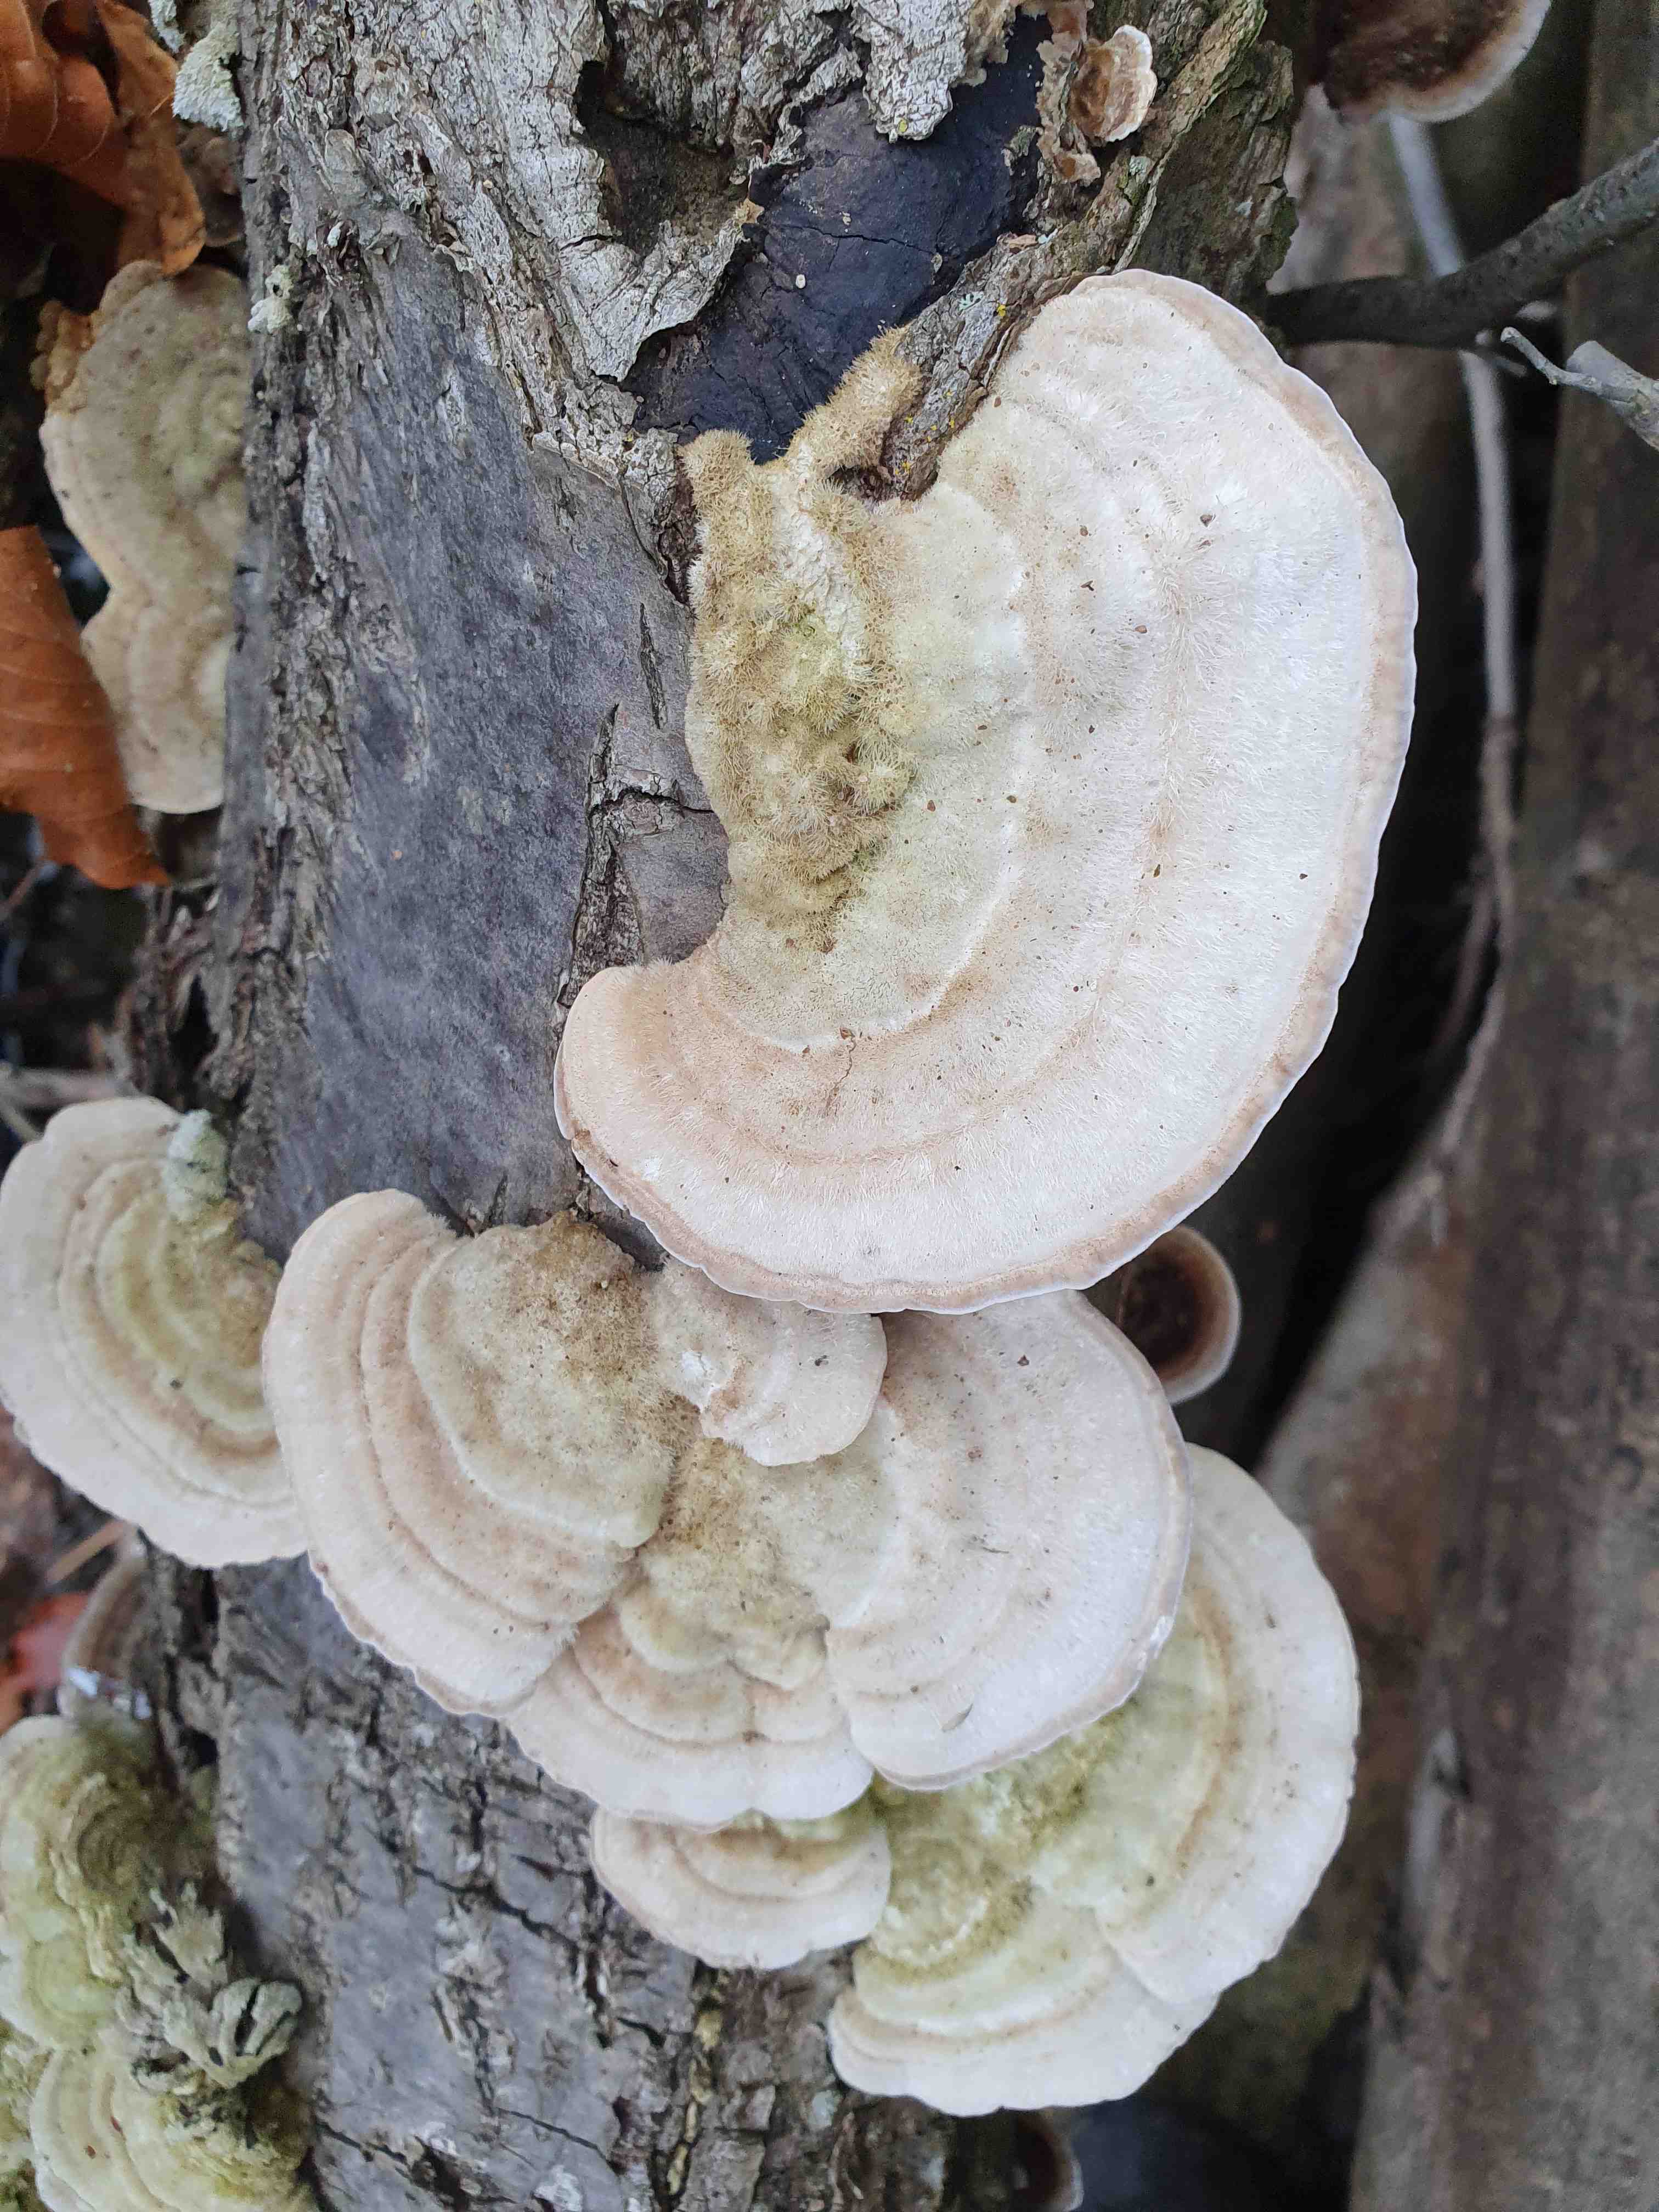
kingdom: Fungi
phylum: Basidiomycota
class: Agaricomycetes
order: Polyporales
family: Polyporaceae
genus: Trametes
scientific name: Trametes hirsuta
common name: håret læderporesvamp
